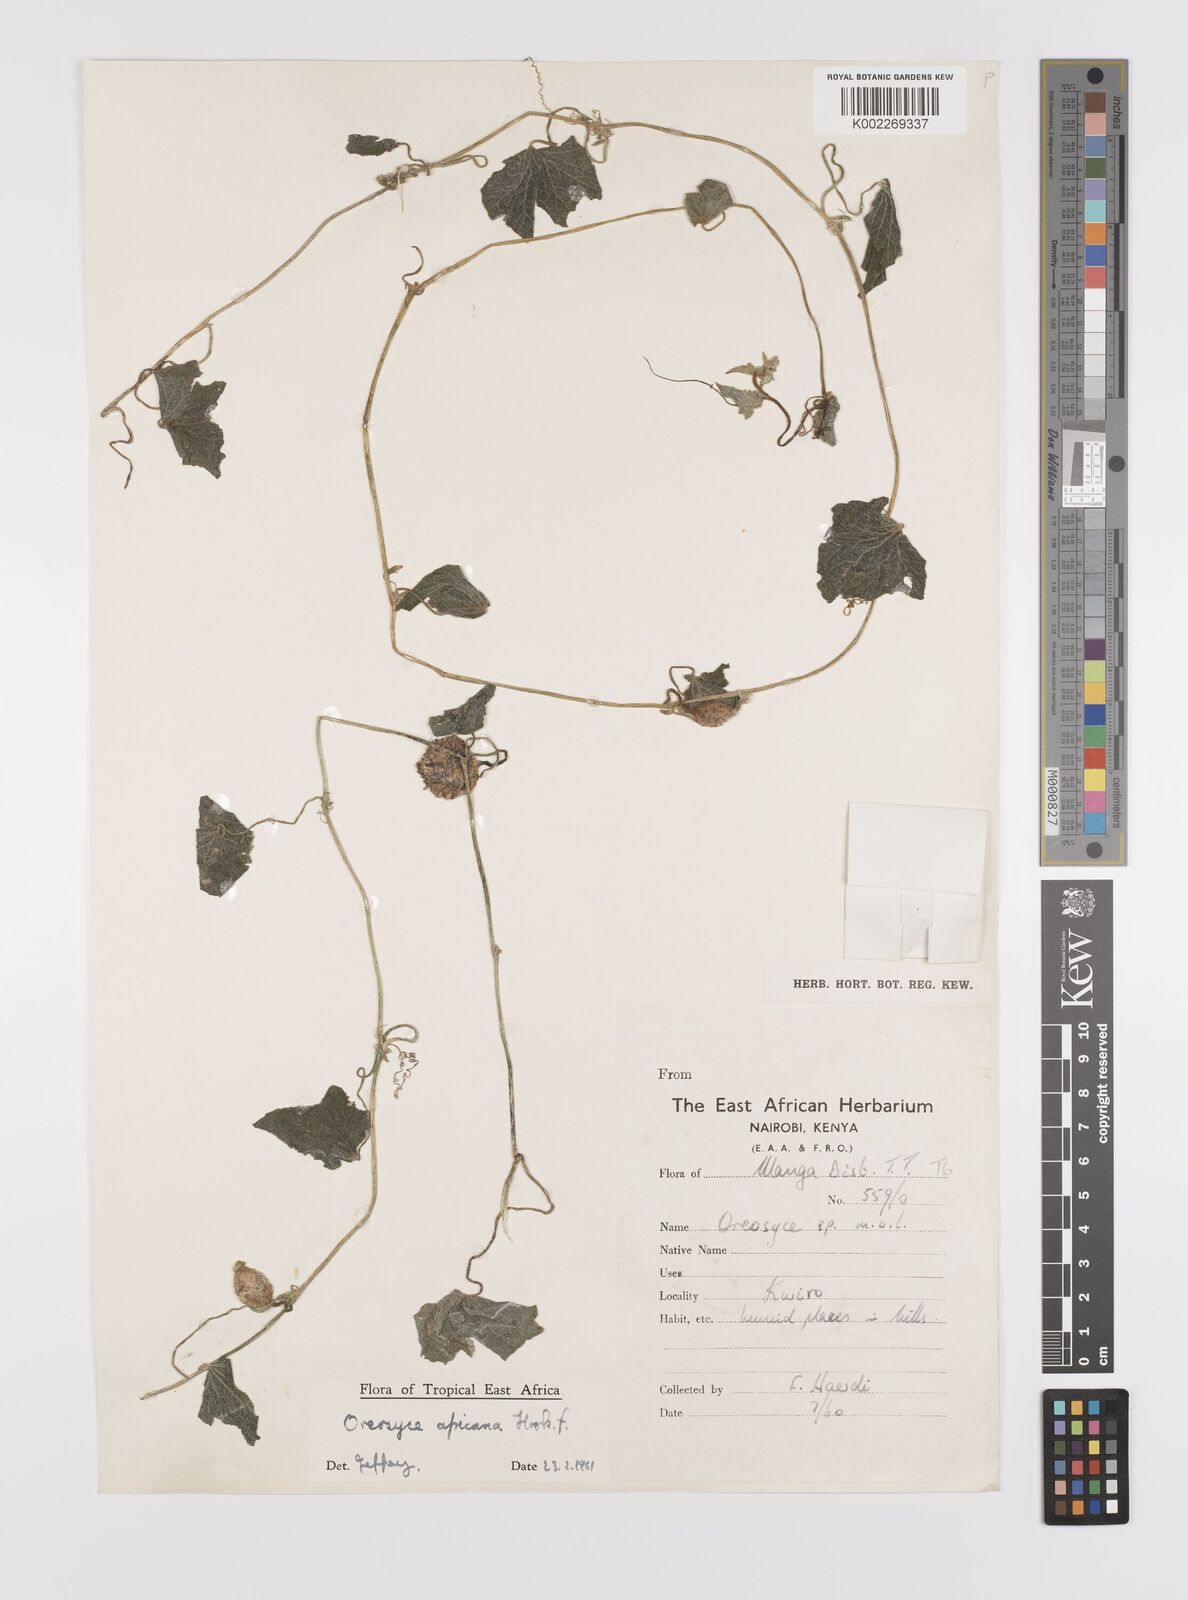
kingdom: Plantae
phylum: Tracheophyta
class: Magnoliopsida
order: Cucurbitales
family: Cucurbitaceae
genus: Cucumis
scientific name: Cucumis oreosyce
